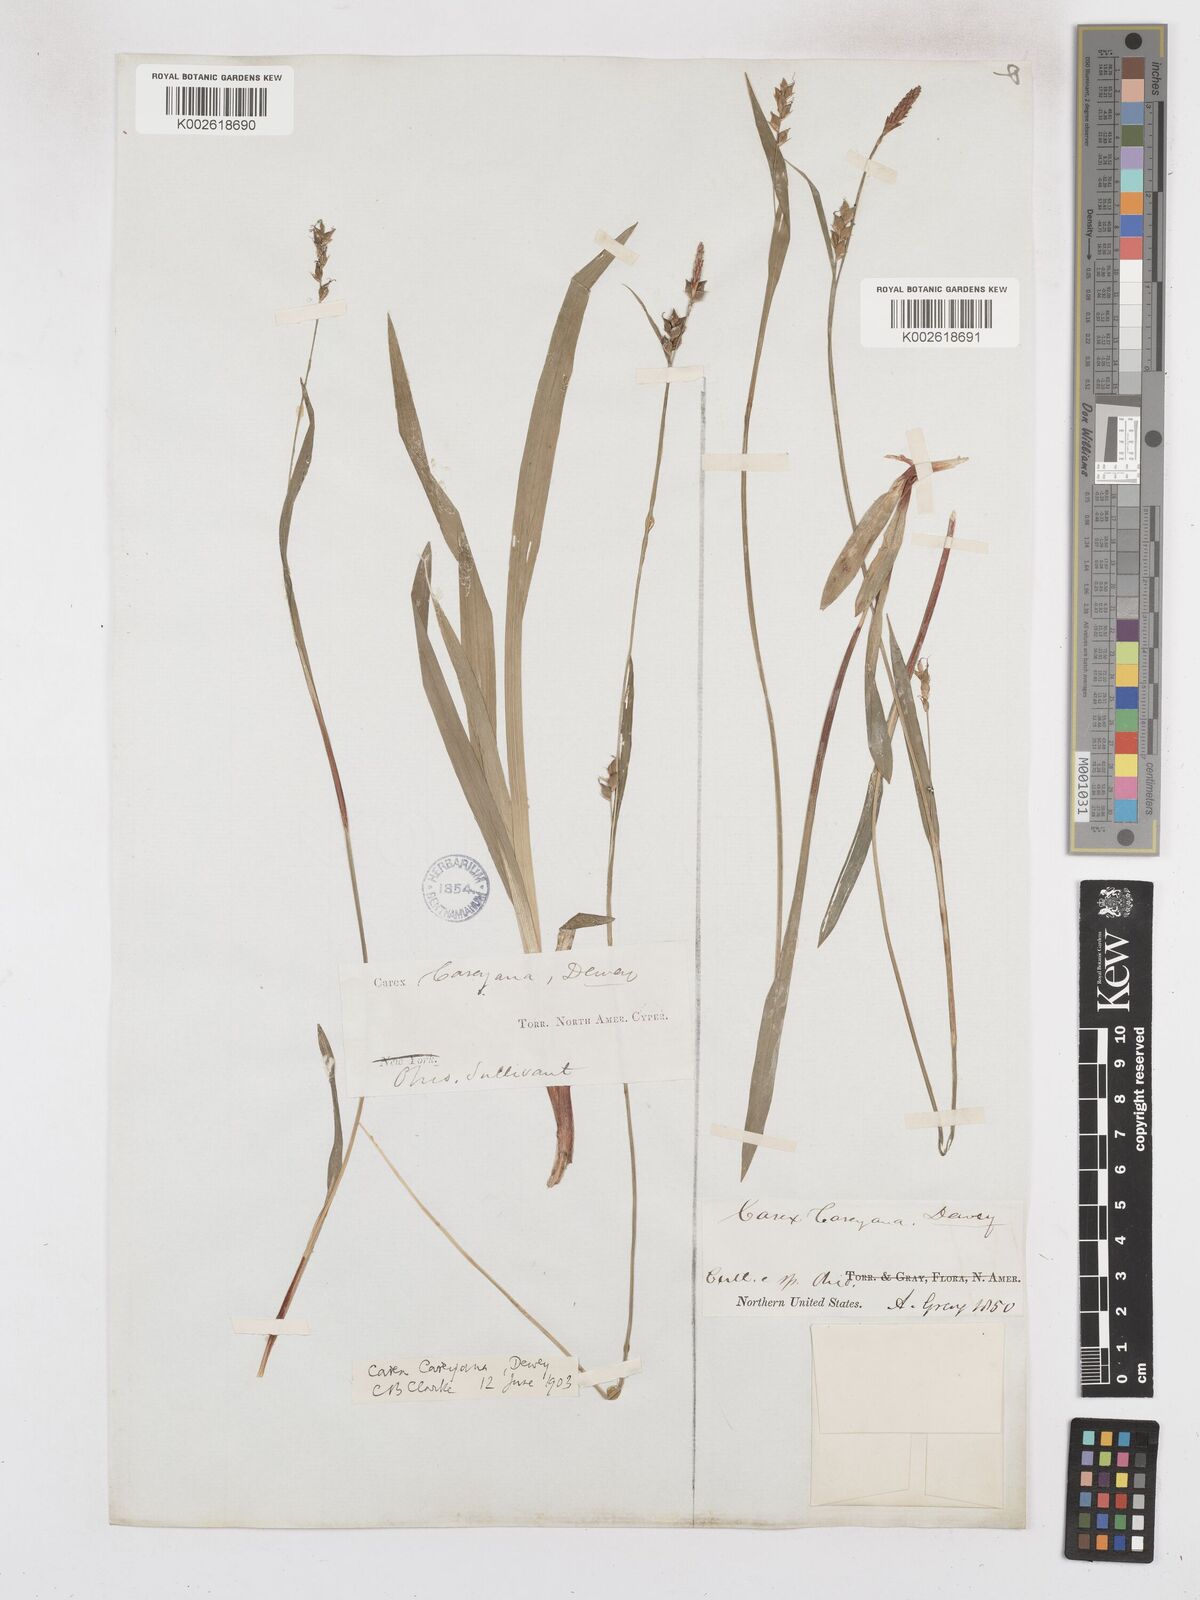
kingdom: Plantae
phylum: Tracheophyta
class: Liliopsida
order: Poales
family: Cyperaceae
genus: Carex
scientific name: Carex careyana
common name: Carey's sedge
